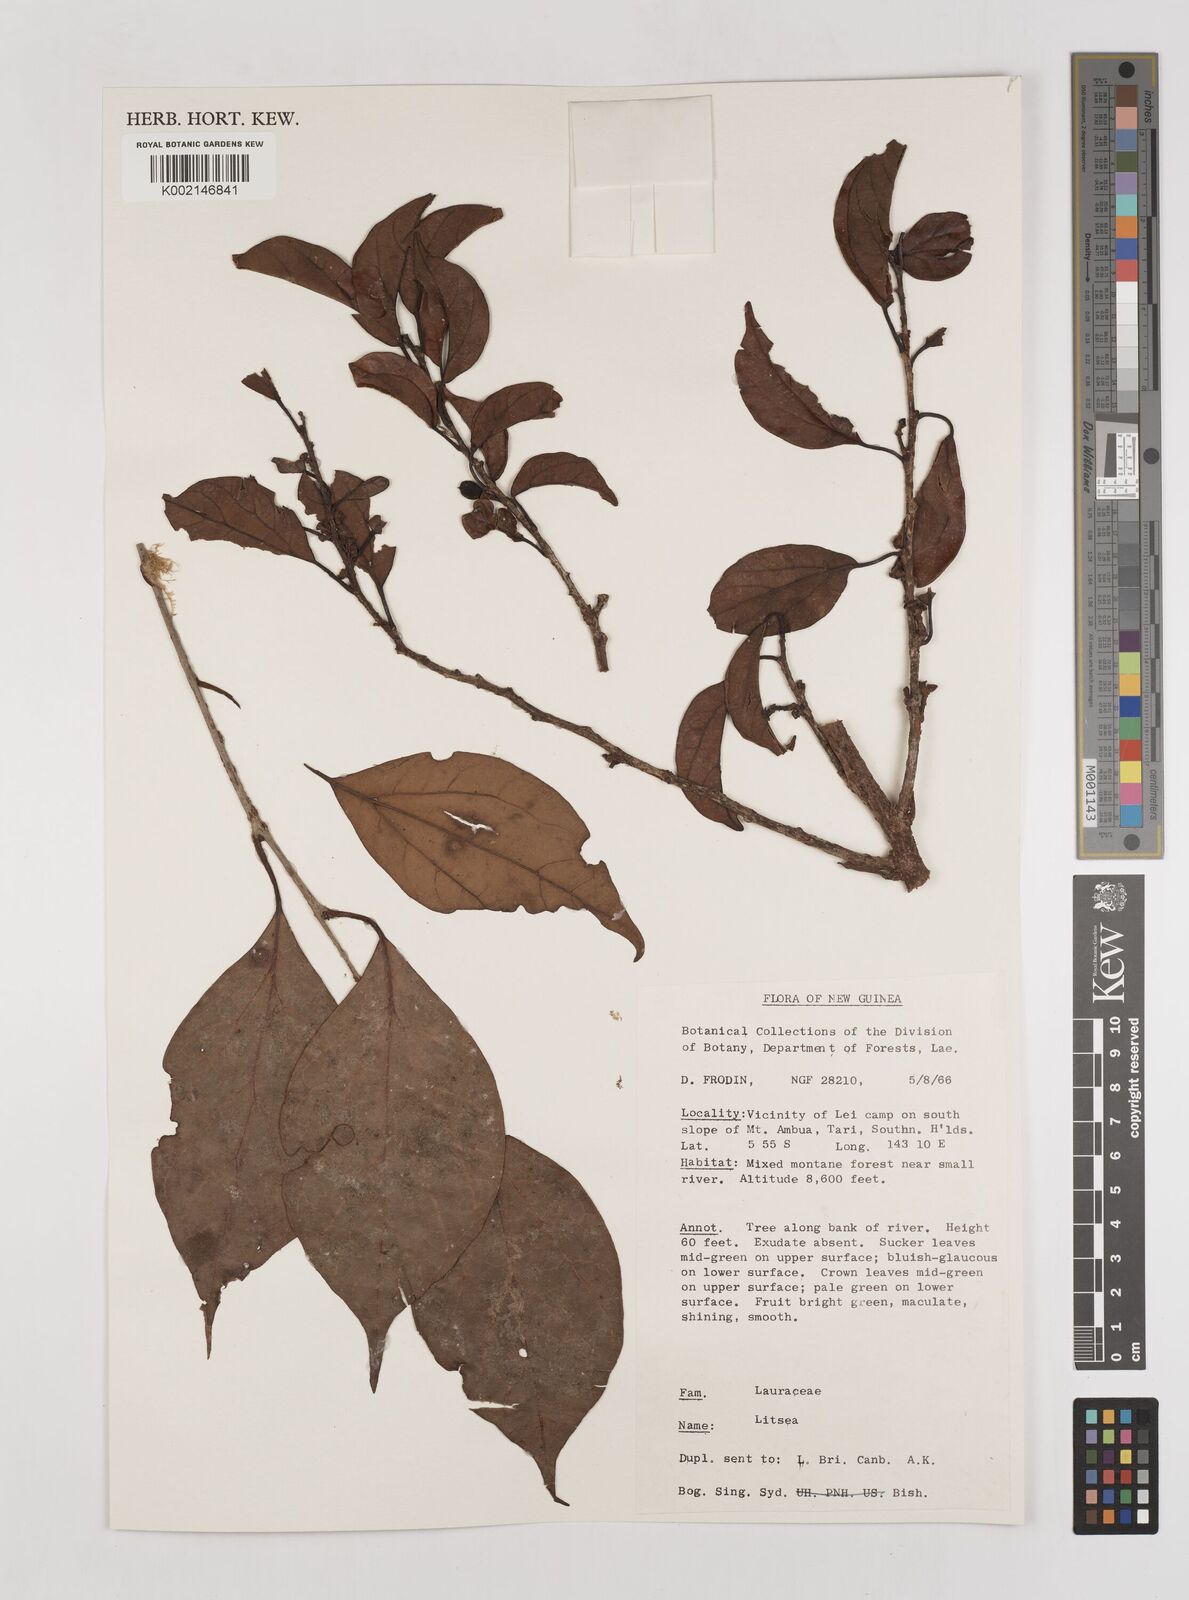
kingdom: Plantae
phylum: Tracheophyta
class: Magnoliopsida
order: Laurales
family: Lauraceae
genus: Litsea
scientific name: Litsea
